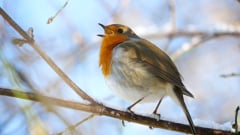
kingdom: Animalia
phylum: Chordata
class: Aves
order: Passeriformes
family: Muscicapidae
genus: Erithacus
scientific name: Erithacus rubecula
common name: European robin
